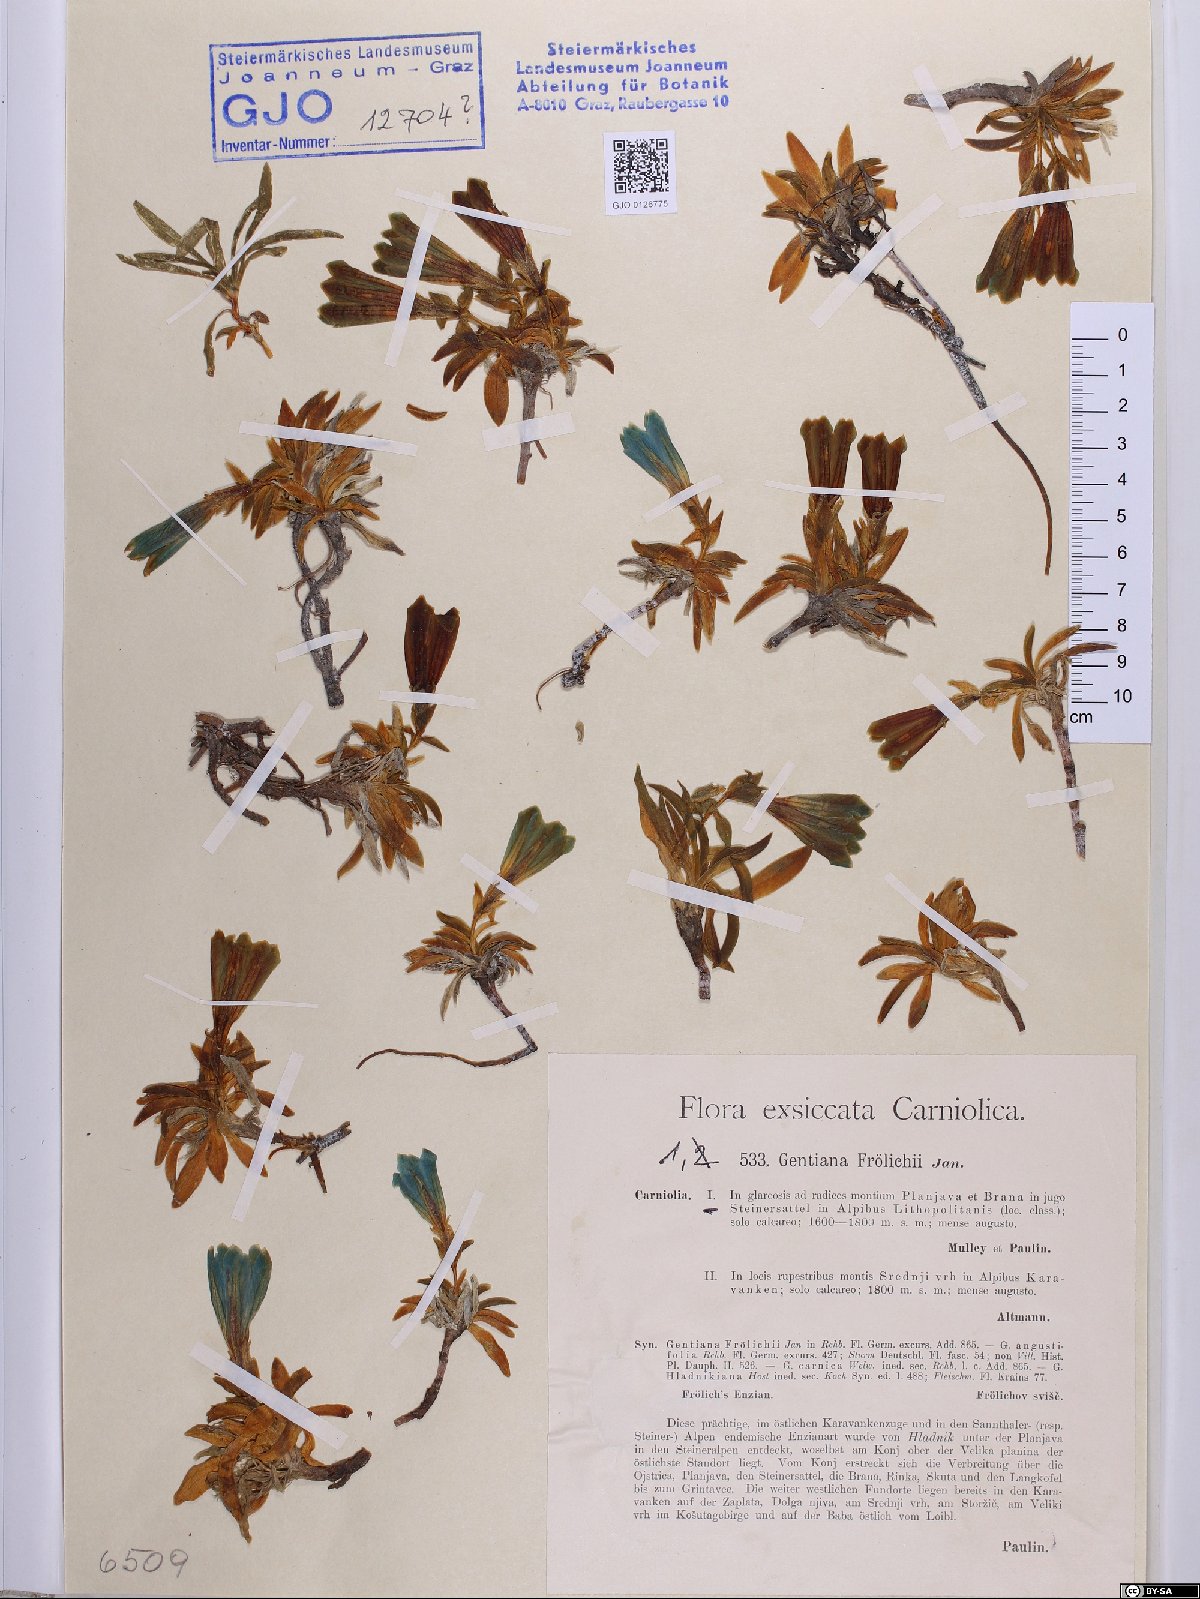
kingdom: Plantae
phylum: Tracheophyta
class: Magnoliopsida
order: Gentianales
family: Gentianaceae
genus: Gentiana
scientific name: Gentiana froelichii
